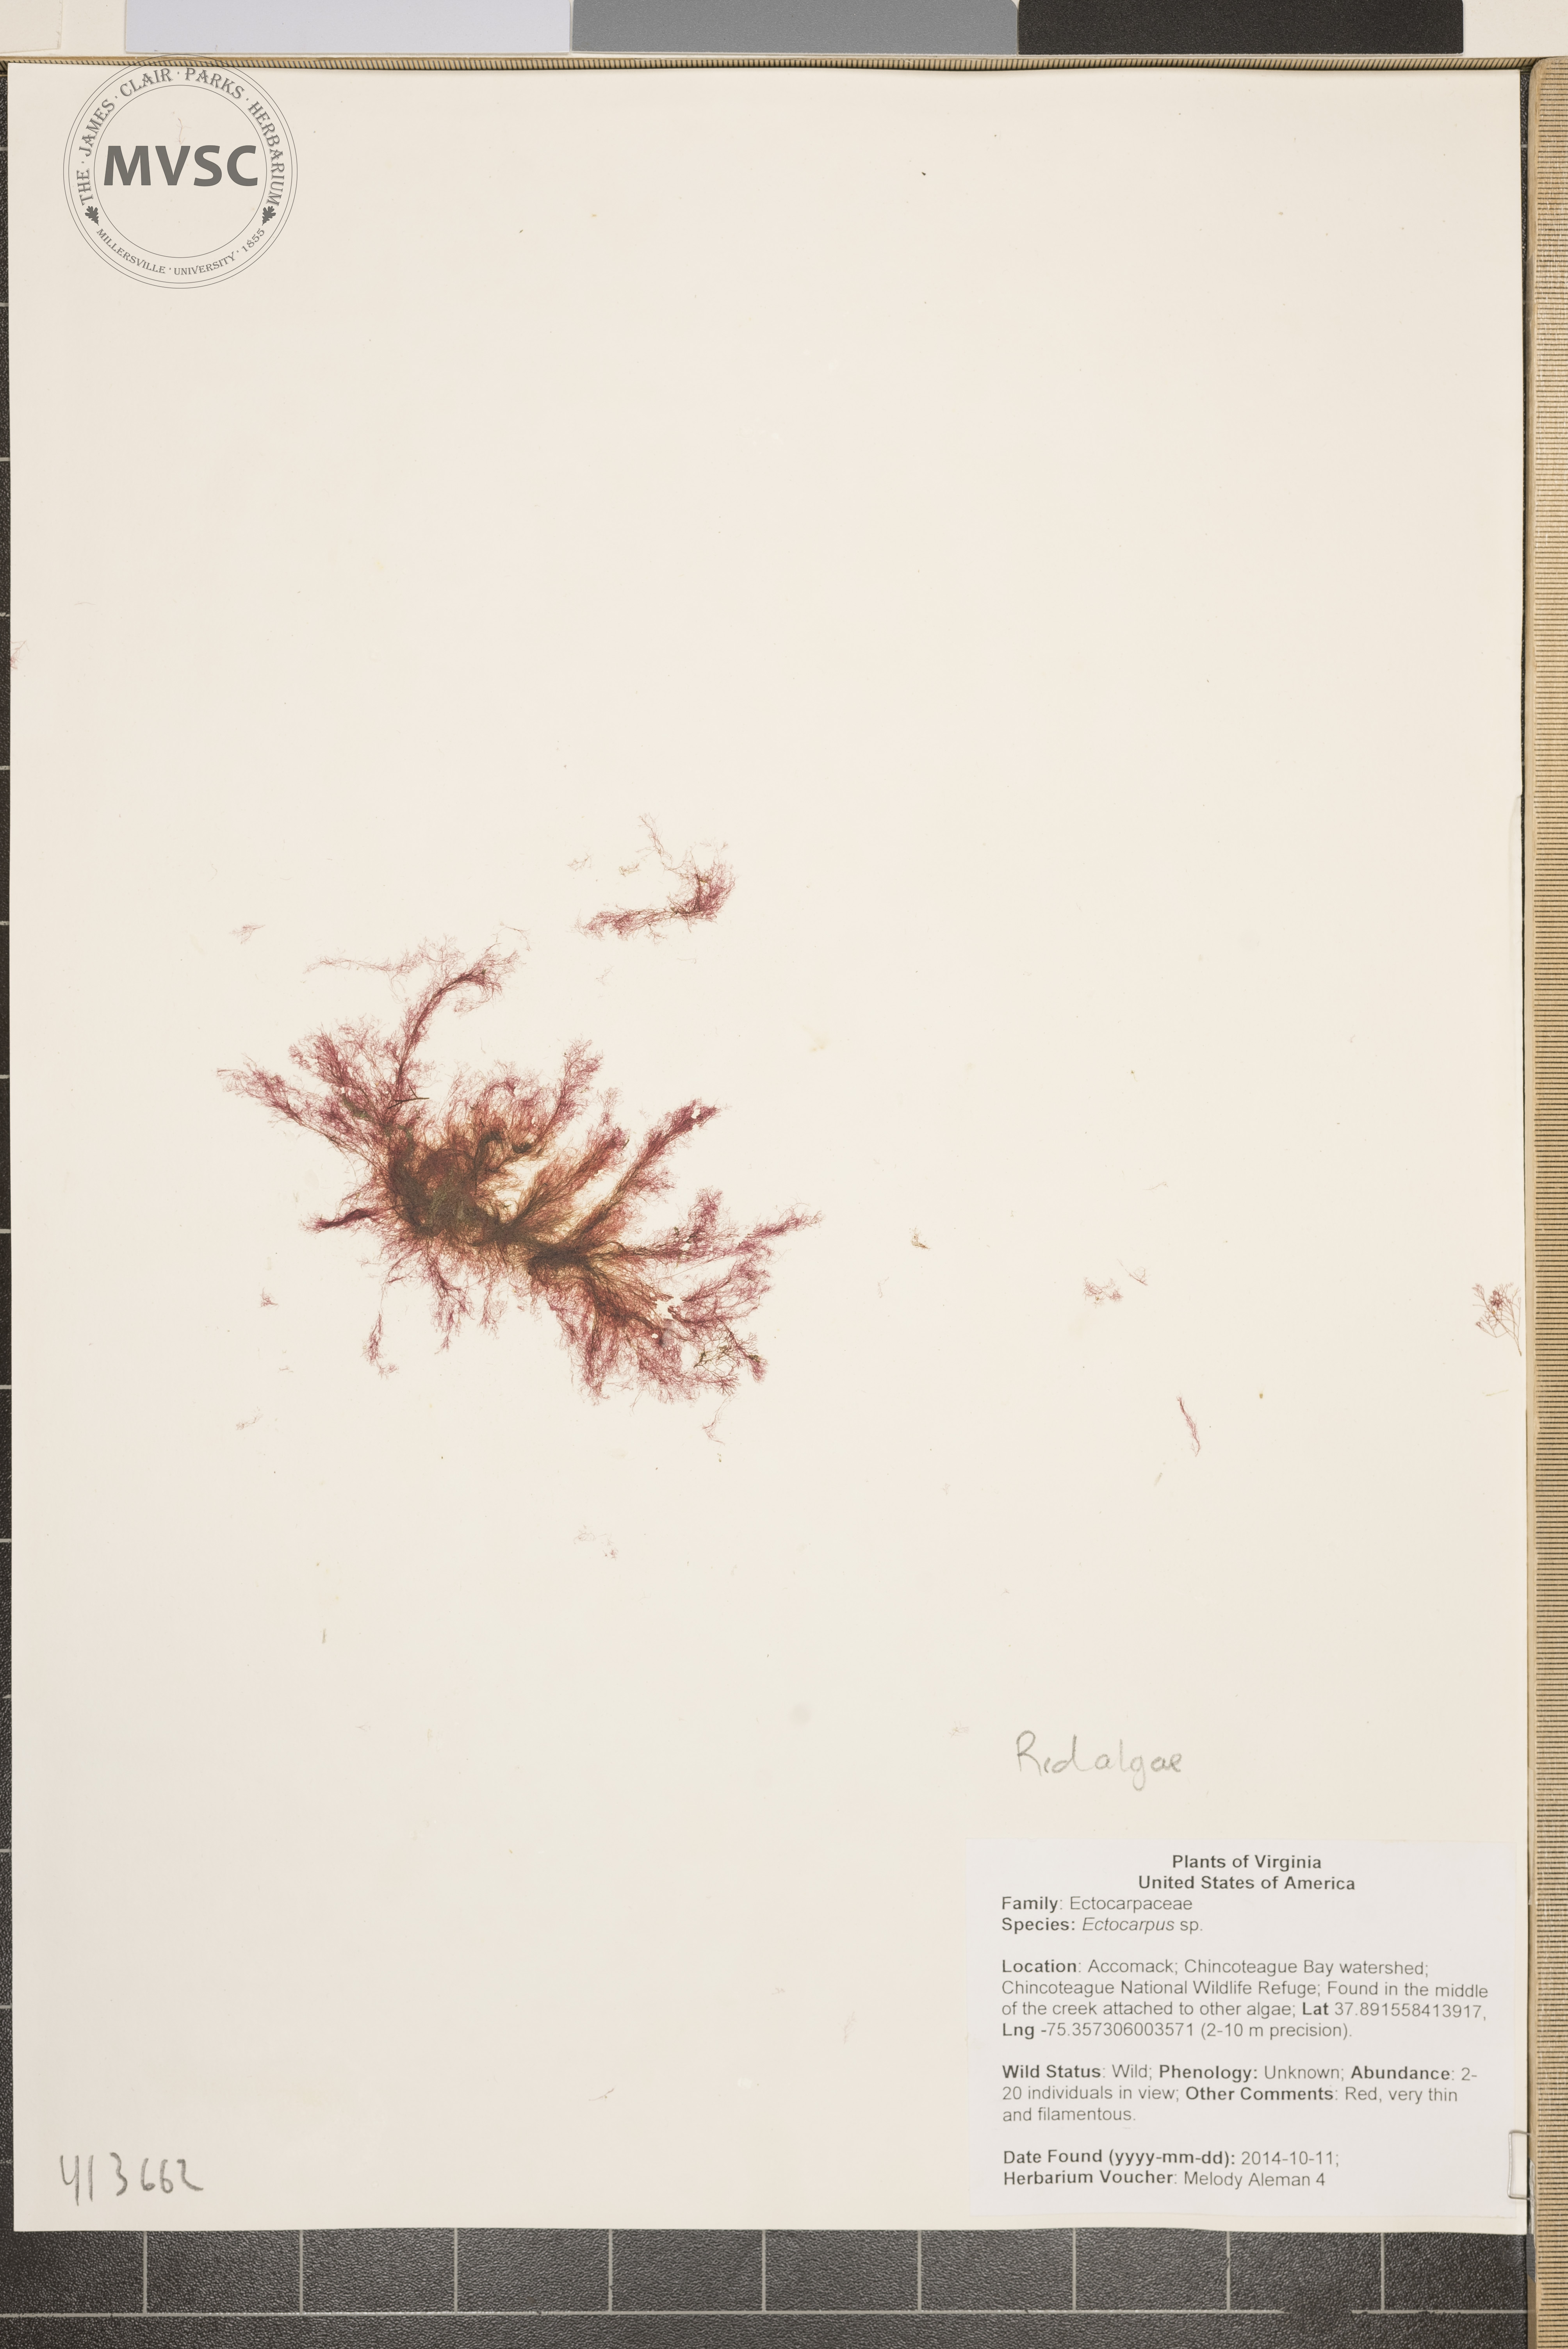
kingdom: Chromista
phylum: Ochrophyta
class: Phaeophyceae
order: Ectocarpales
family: Ectocarpaceae
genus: Ectocarpus
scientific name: Ectocarpus
